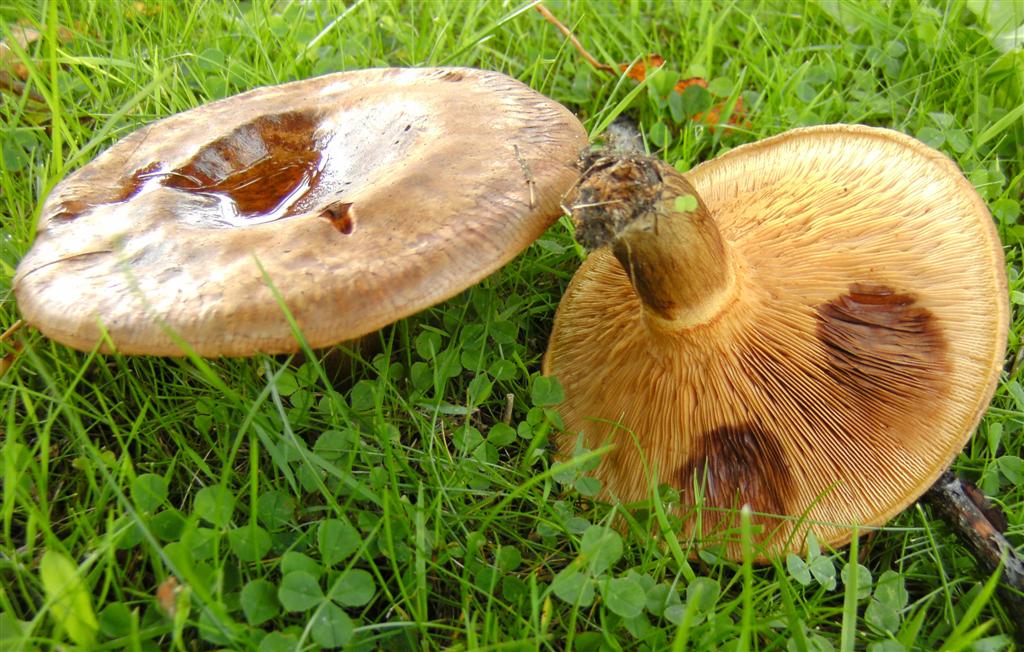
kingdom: Fungi
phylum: Basidiomycota
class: Agaricomycetes
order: Boletales
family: Paxillaceae
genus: Paxillus
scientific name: Paxillus obscurisporus
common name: mahognisporet netbladhat
